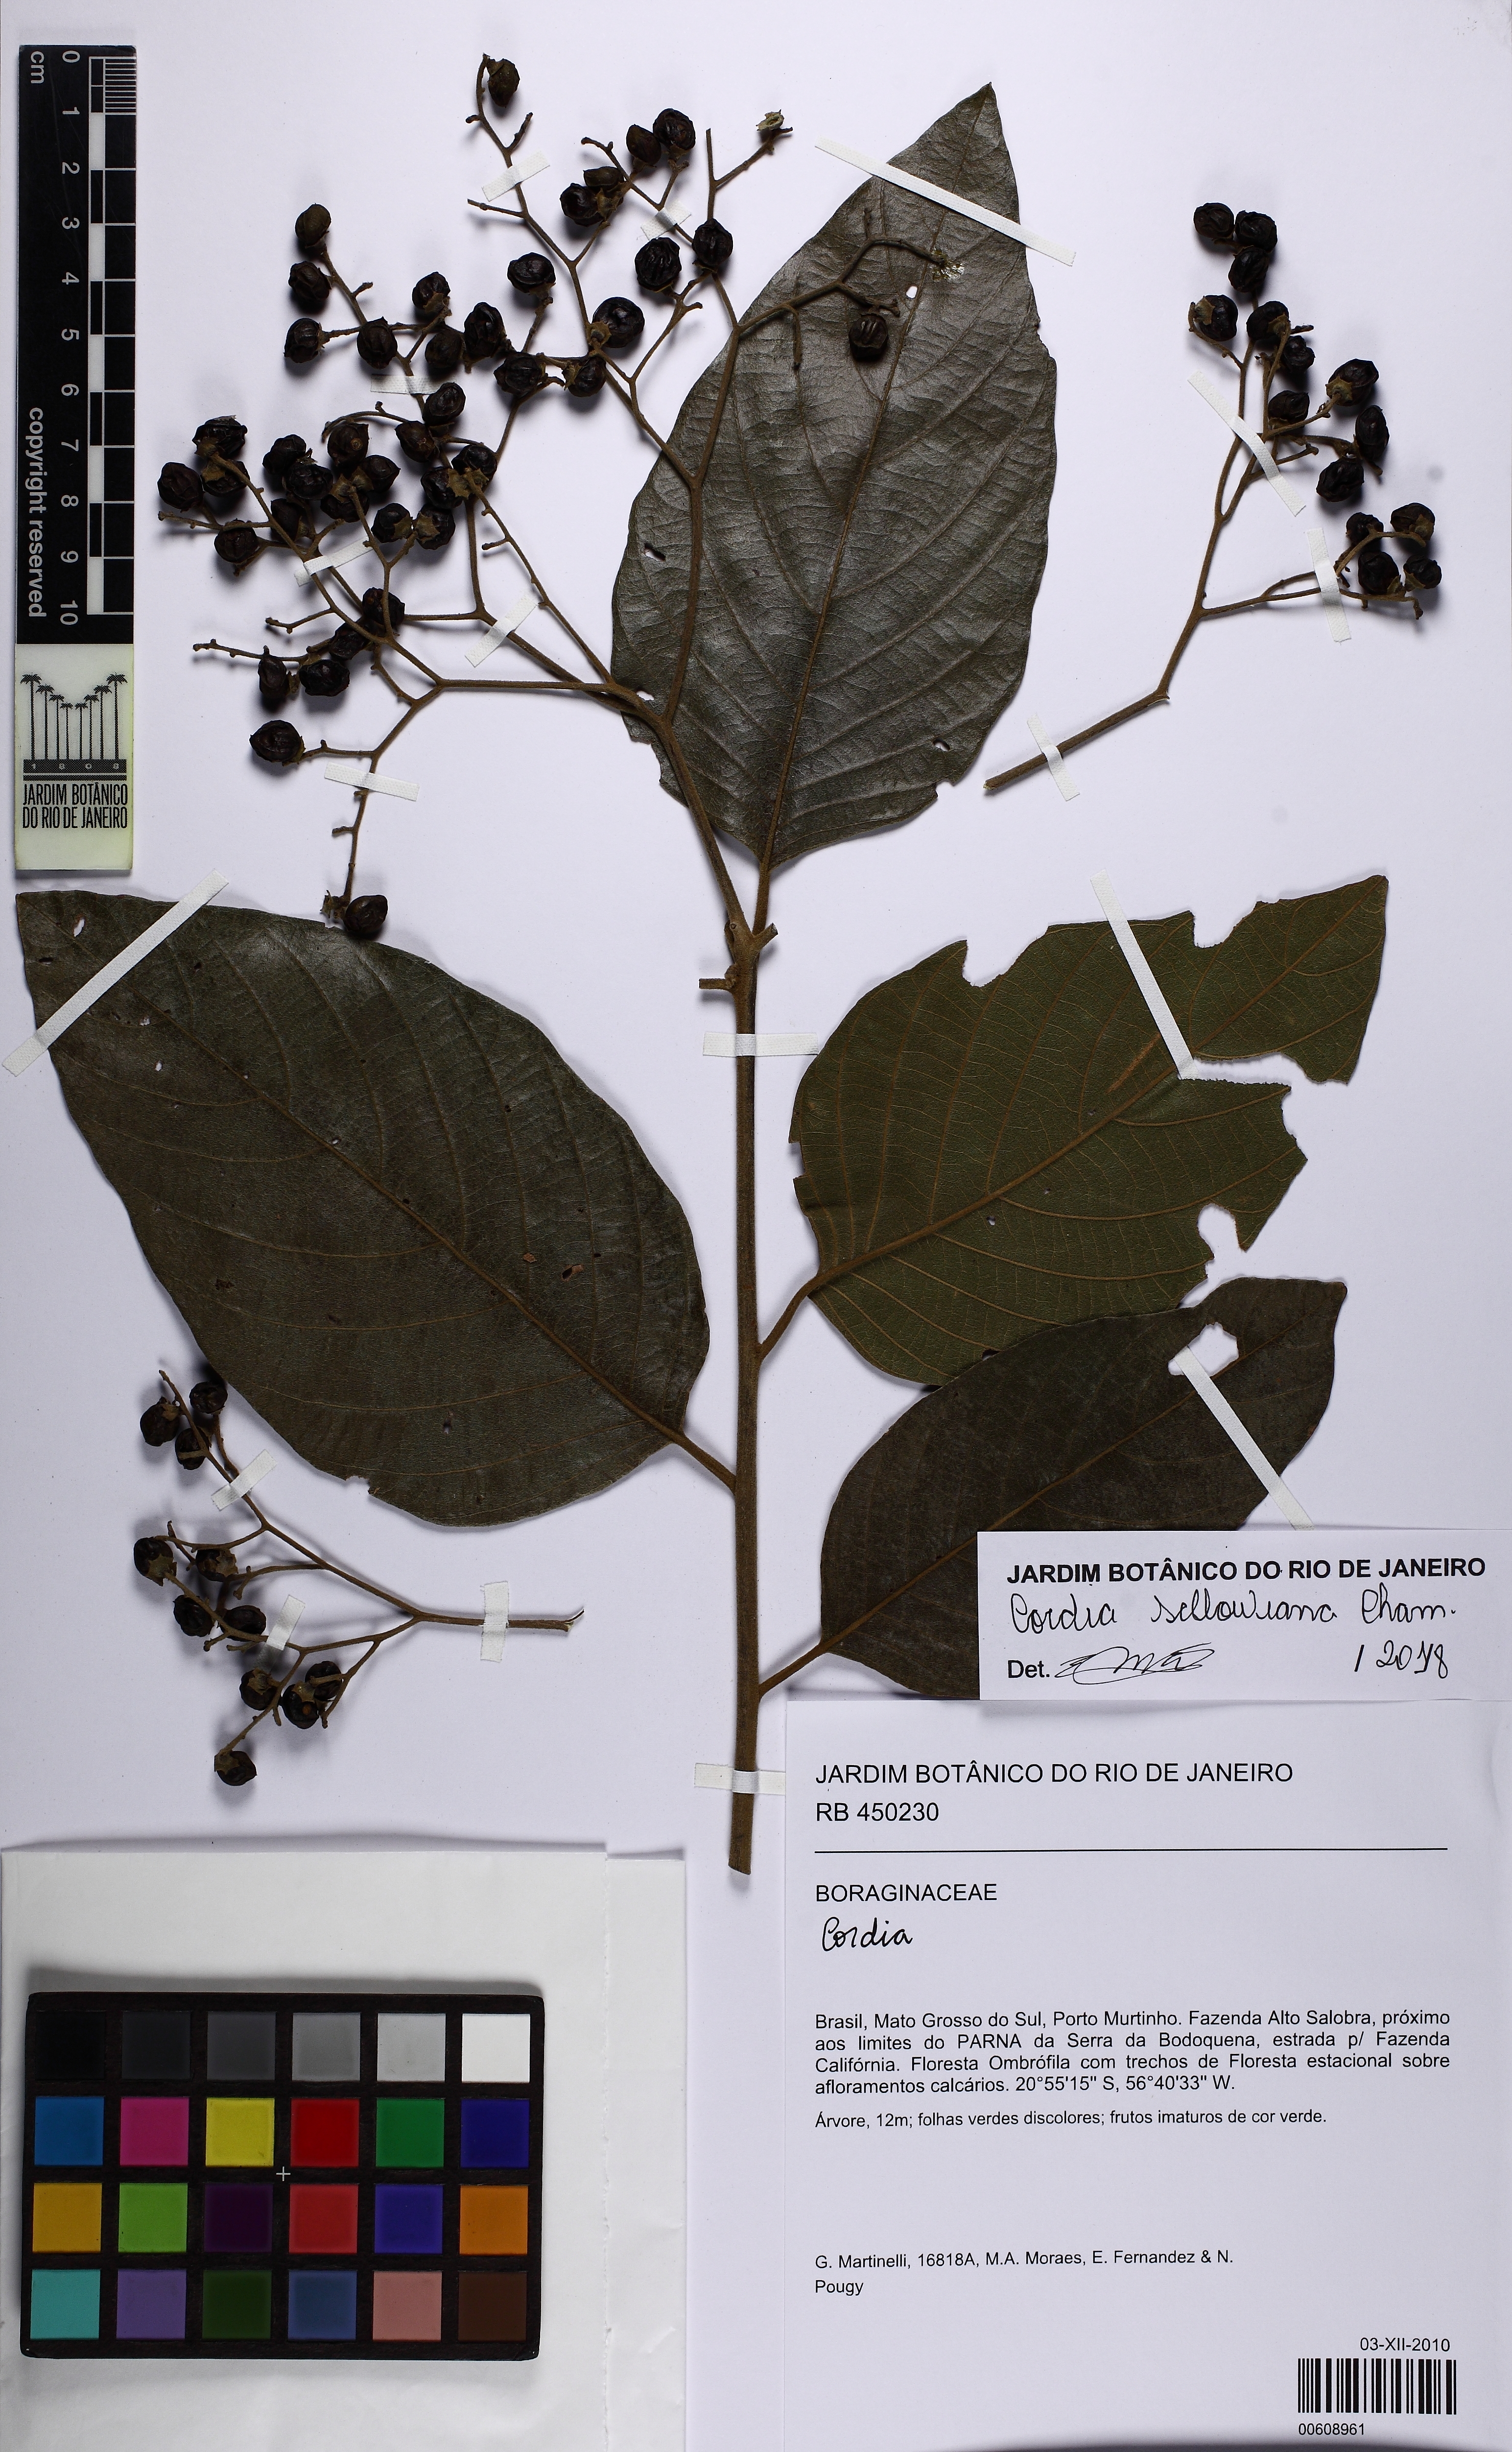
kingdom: Plantae
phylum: Tracheophyta
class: Magnoliopsida
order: Boraginales
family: Cordiaceae
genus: Cordia
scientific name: Cordia sellowiana
